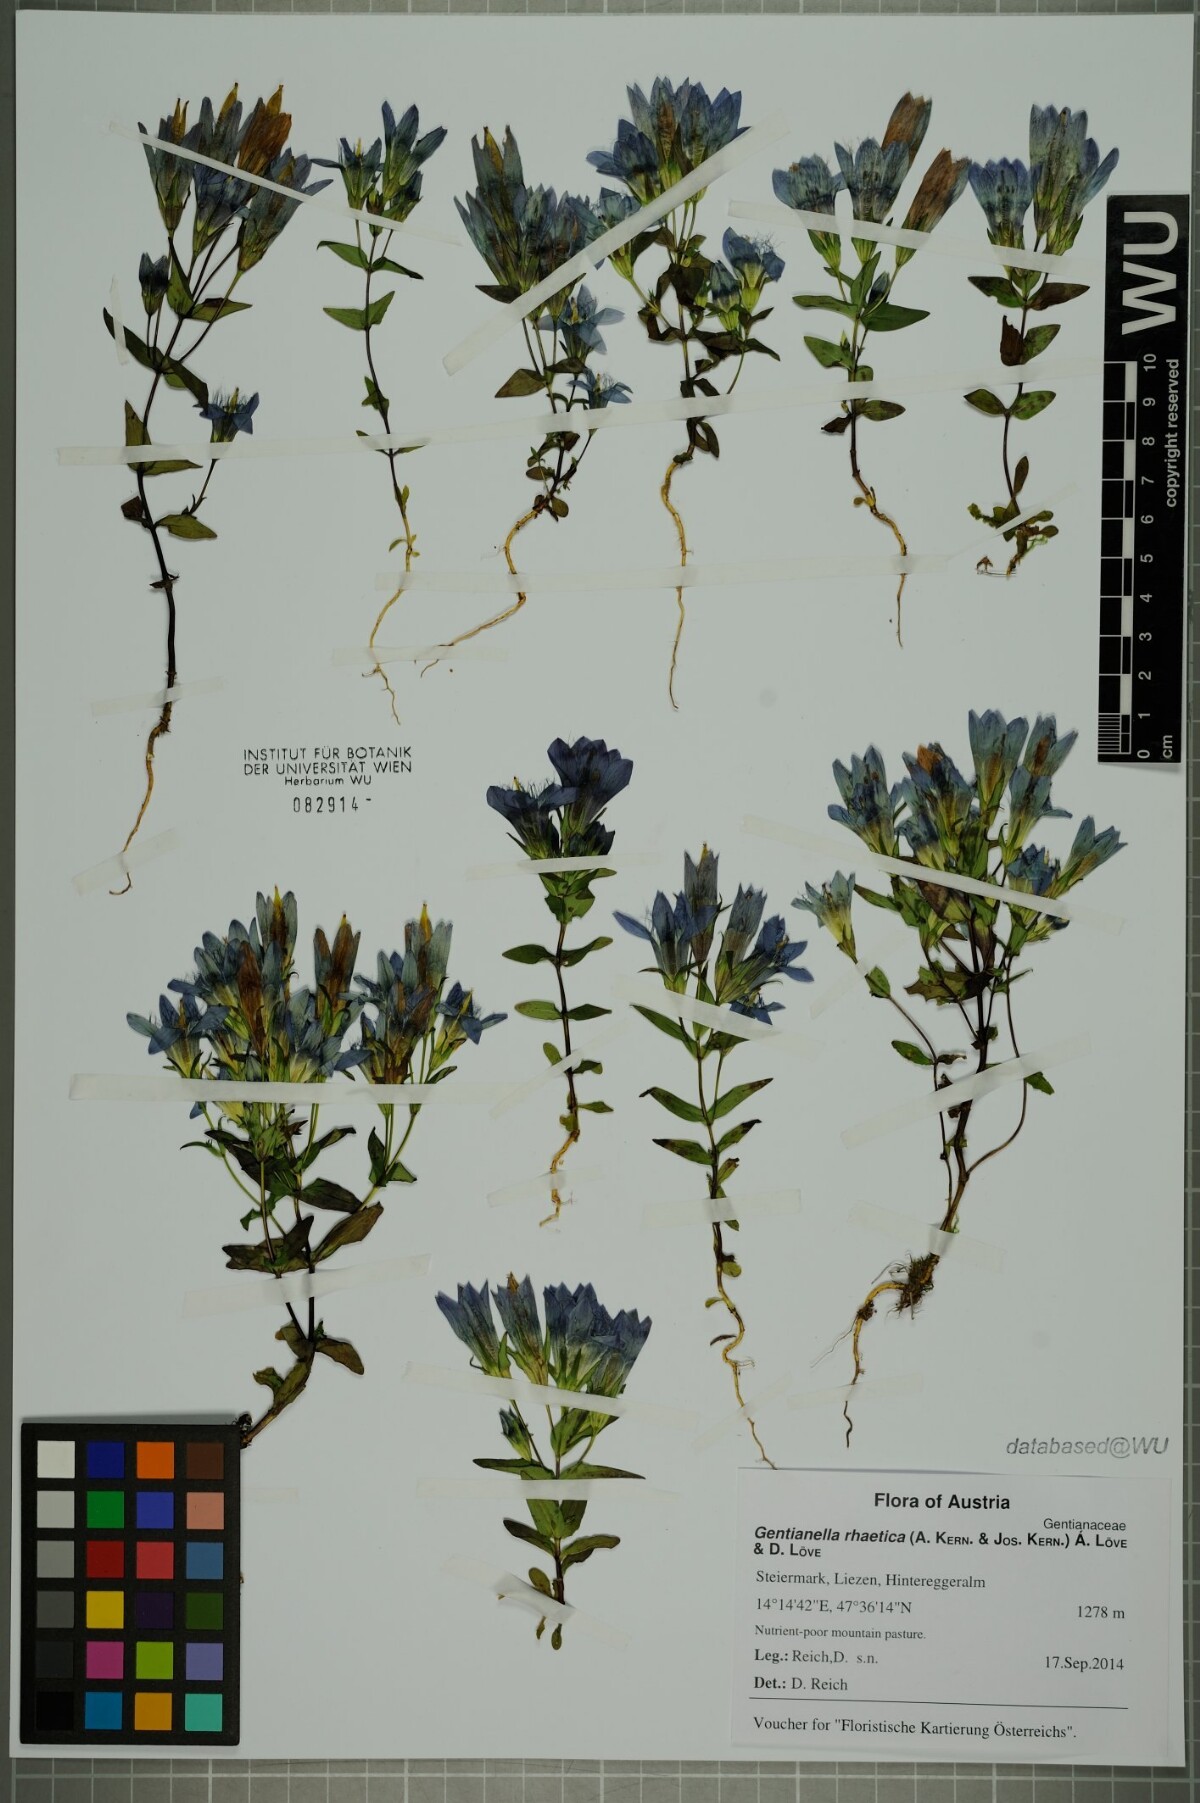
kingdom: Plantae
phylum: Tracheophyta
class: Magnoliopsida
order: Gentianales
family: Gentianaceae
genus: Gentianella
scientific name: Gentianella rhaetica
